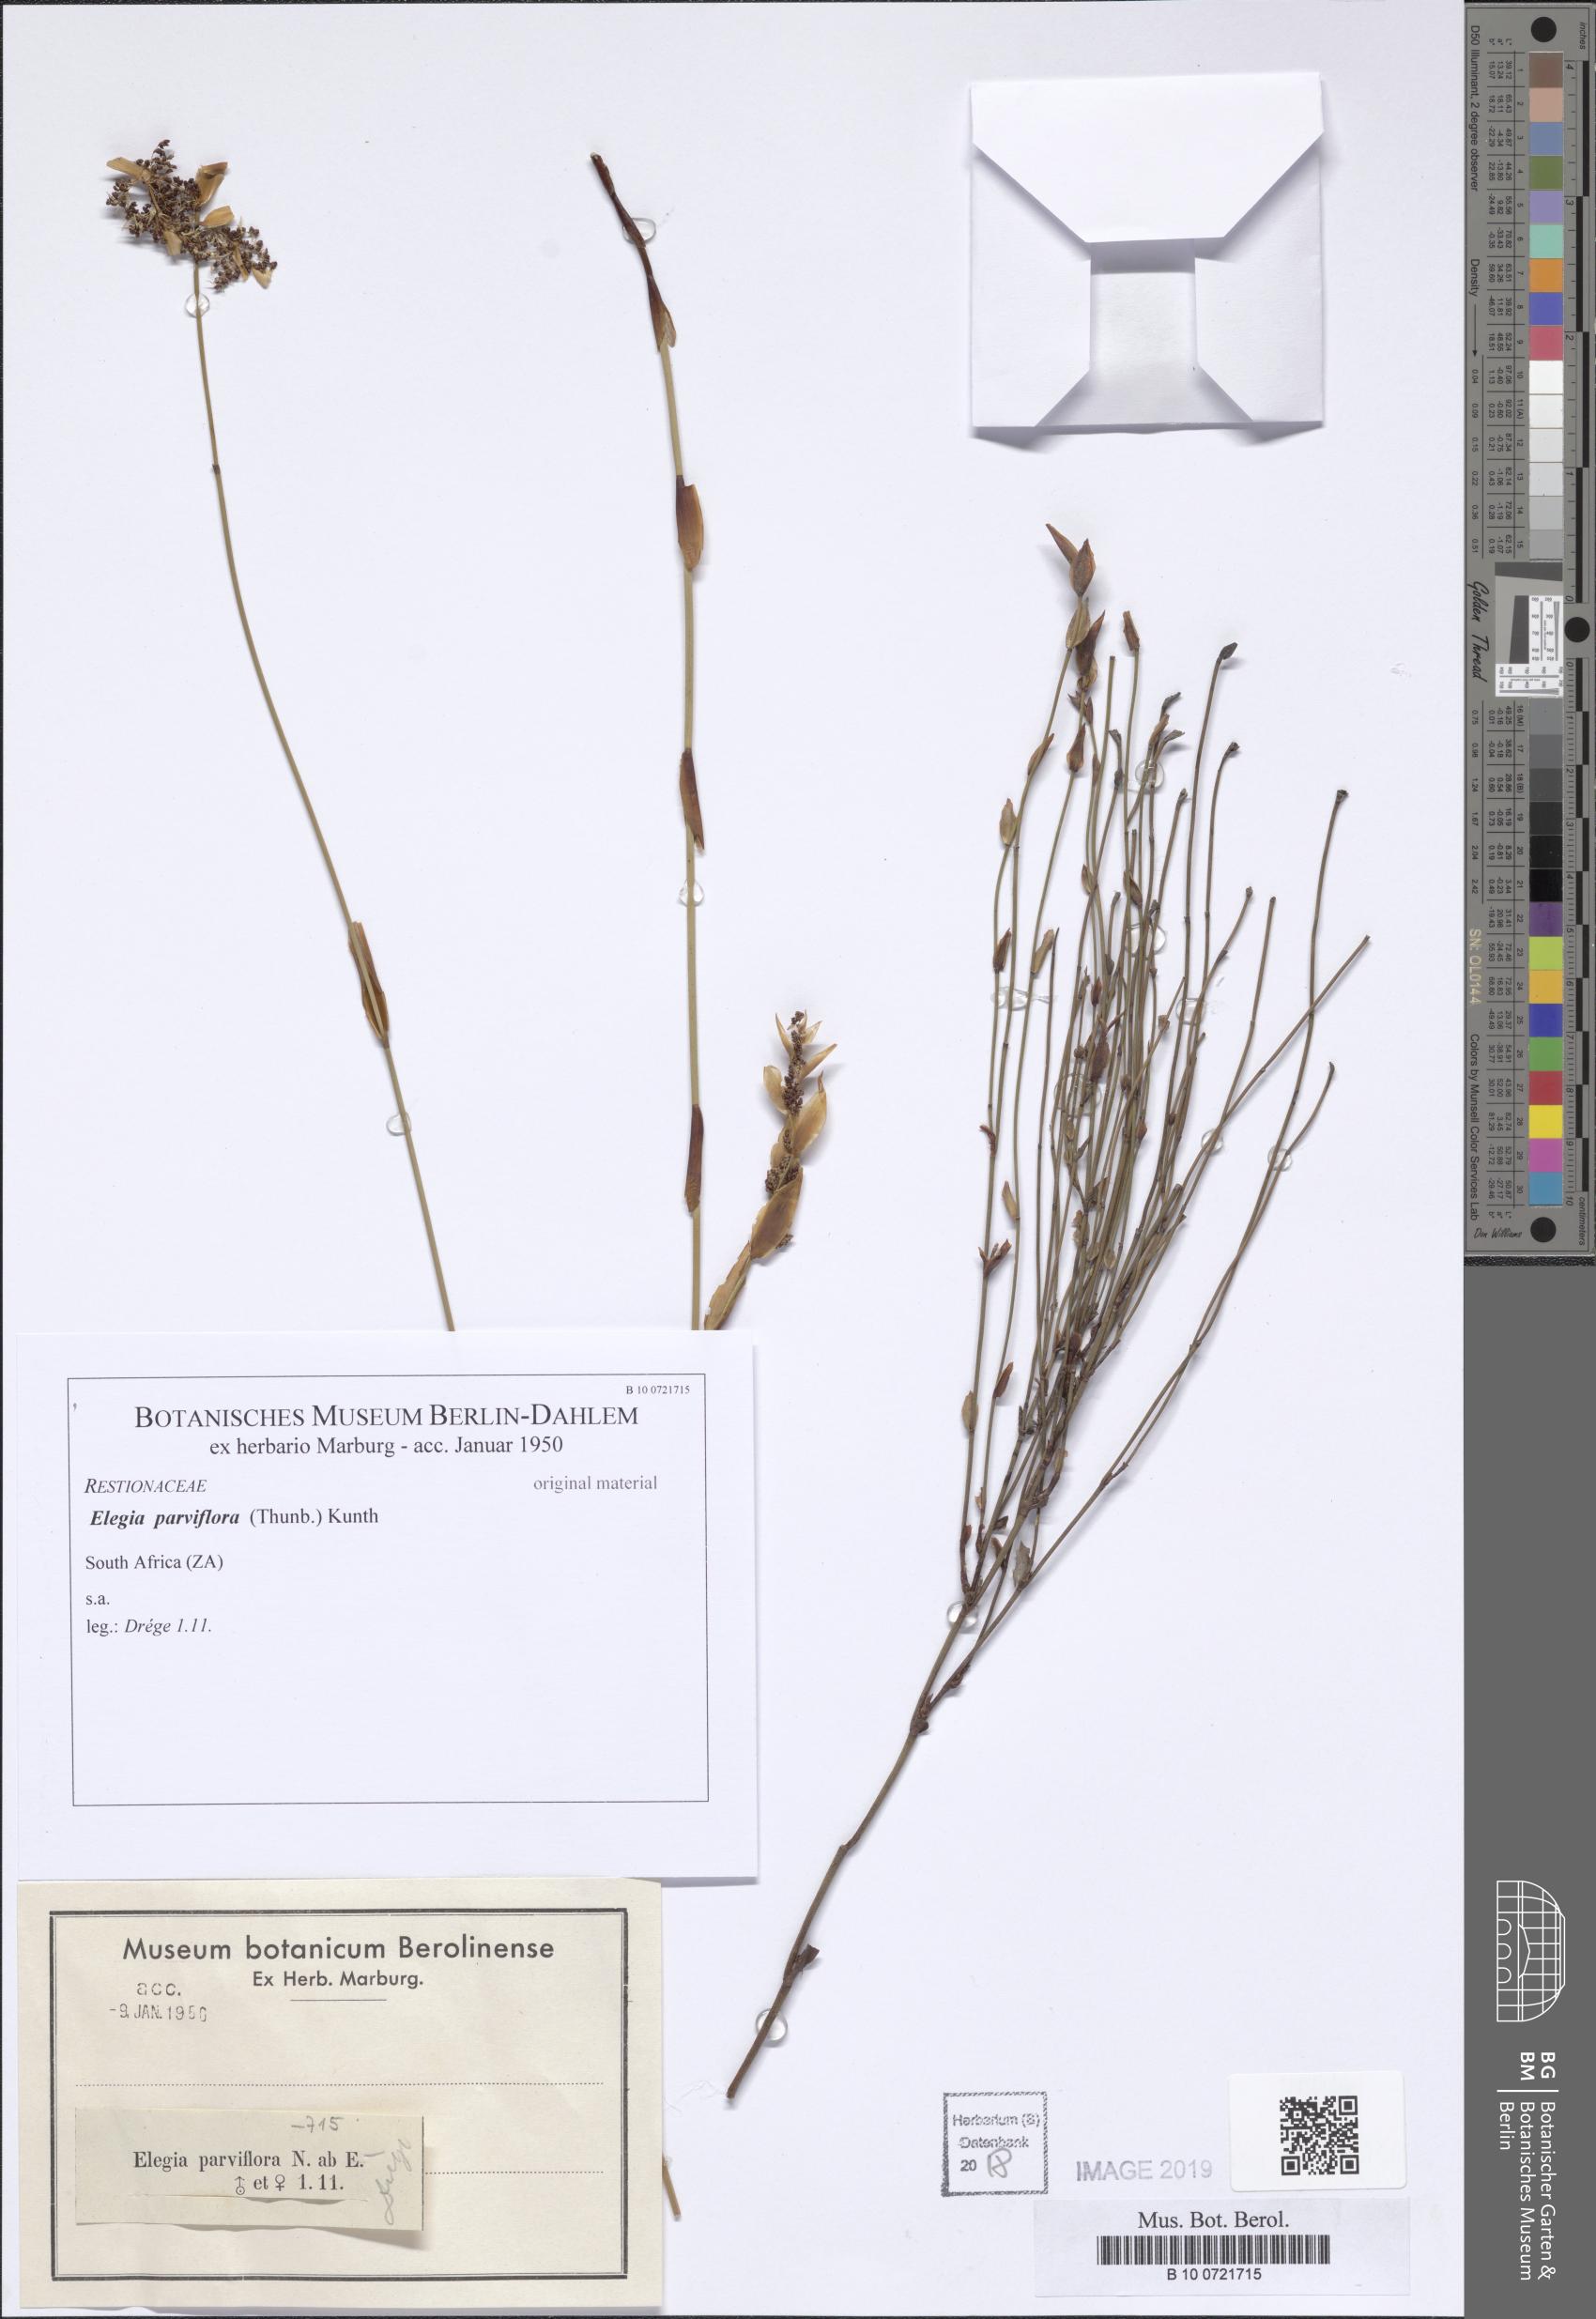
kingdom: Plantae
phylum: Tracheophyta
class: Liliopsida
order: Poales
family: Restionaceae
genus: Cannomois
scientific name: Cannomois parviflora
